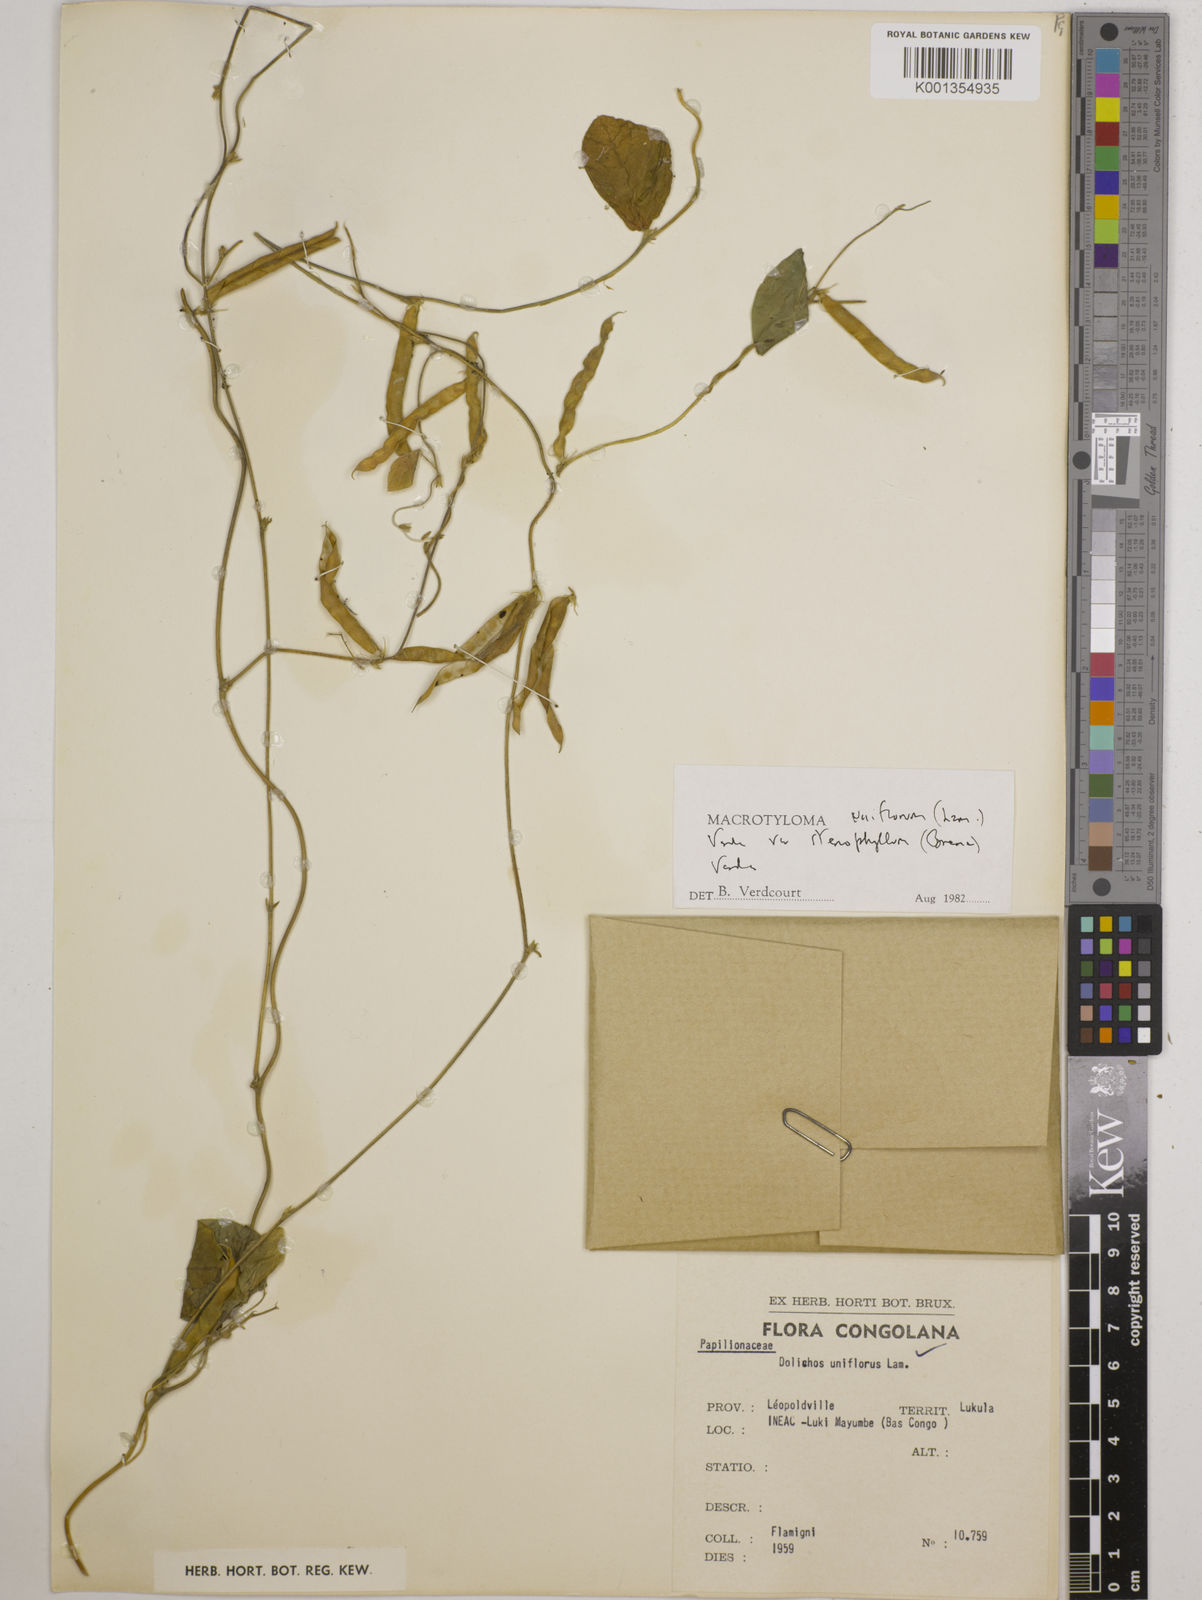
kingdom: Plantae
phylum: Tracheophyta
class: Magnoliopsida
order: Fabales
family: Fabaceae
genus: Macrotyloma
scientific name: Macrotyloma uniflorum
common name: Horse gram
